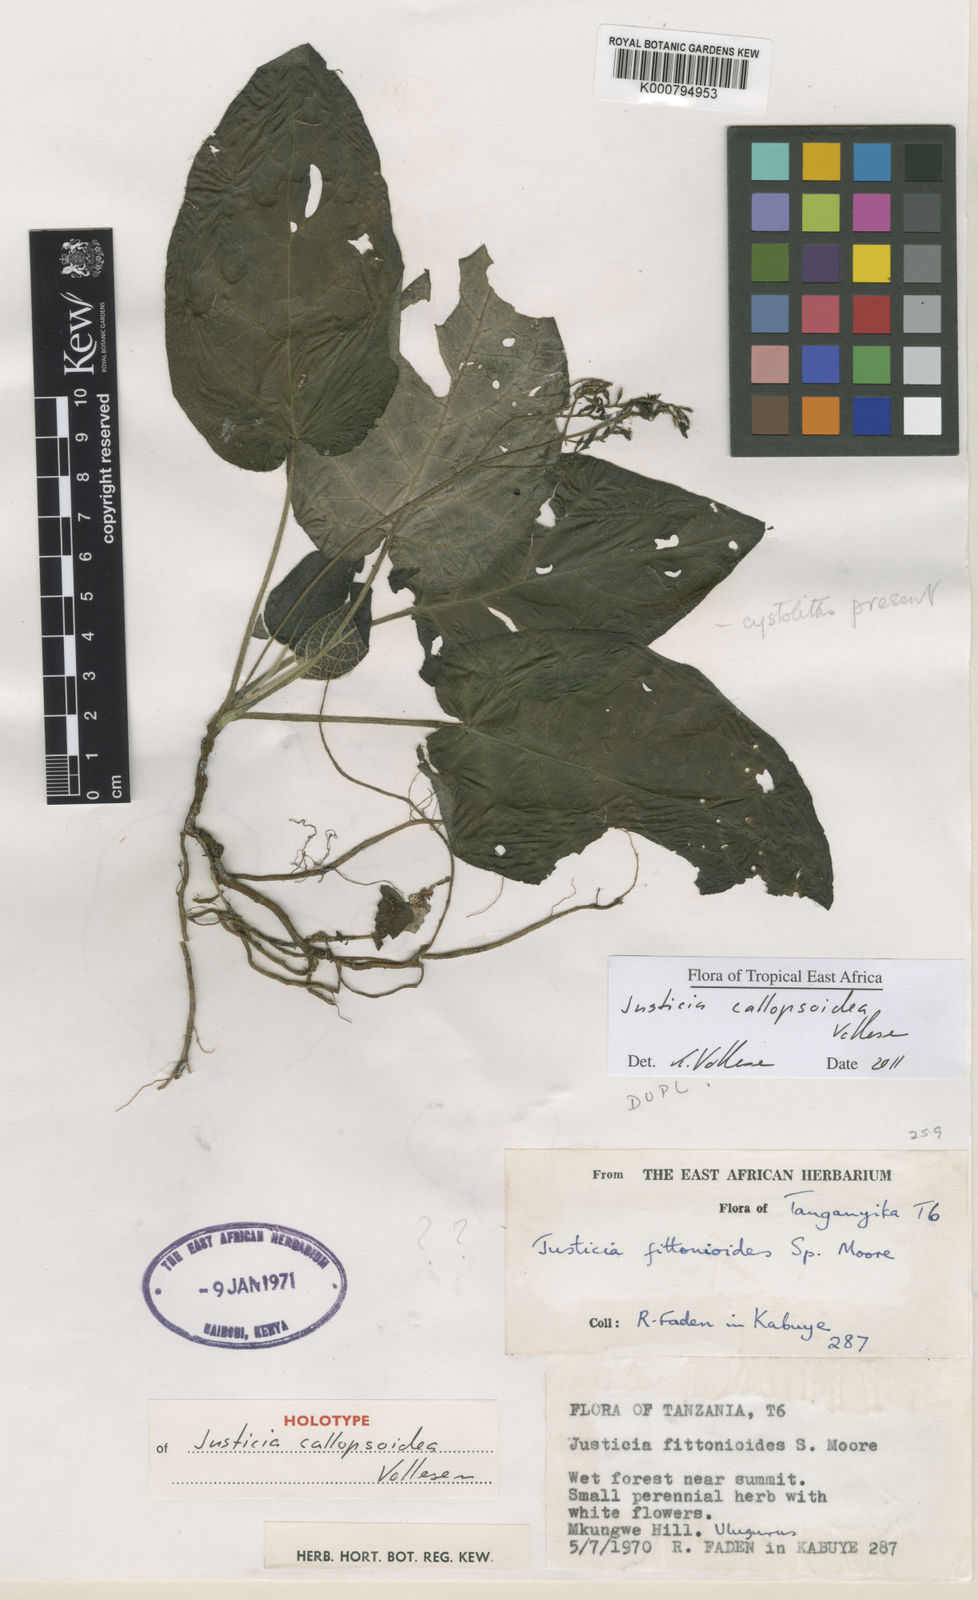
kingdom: Plantae
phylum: Tracheophyta
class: Magnoliopsida
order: Lamiales
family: Acanthaceae
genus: Justicia
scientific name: Justicia callopsoidea
